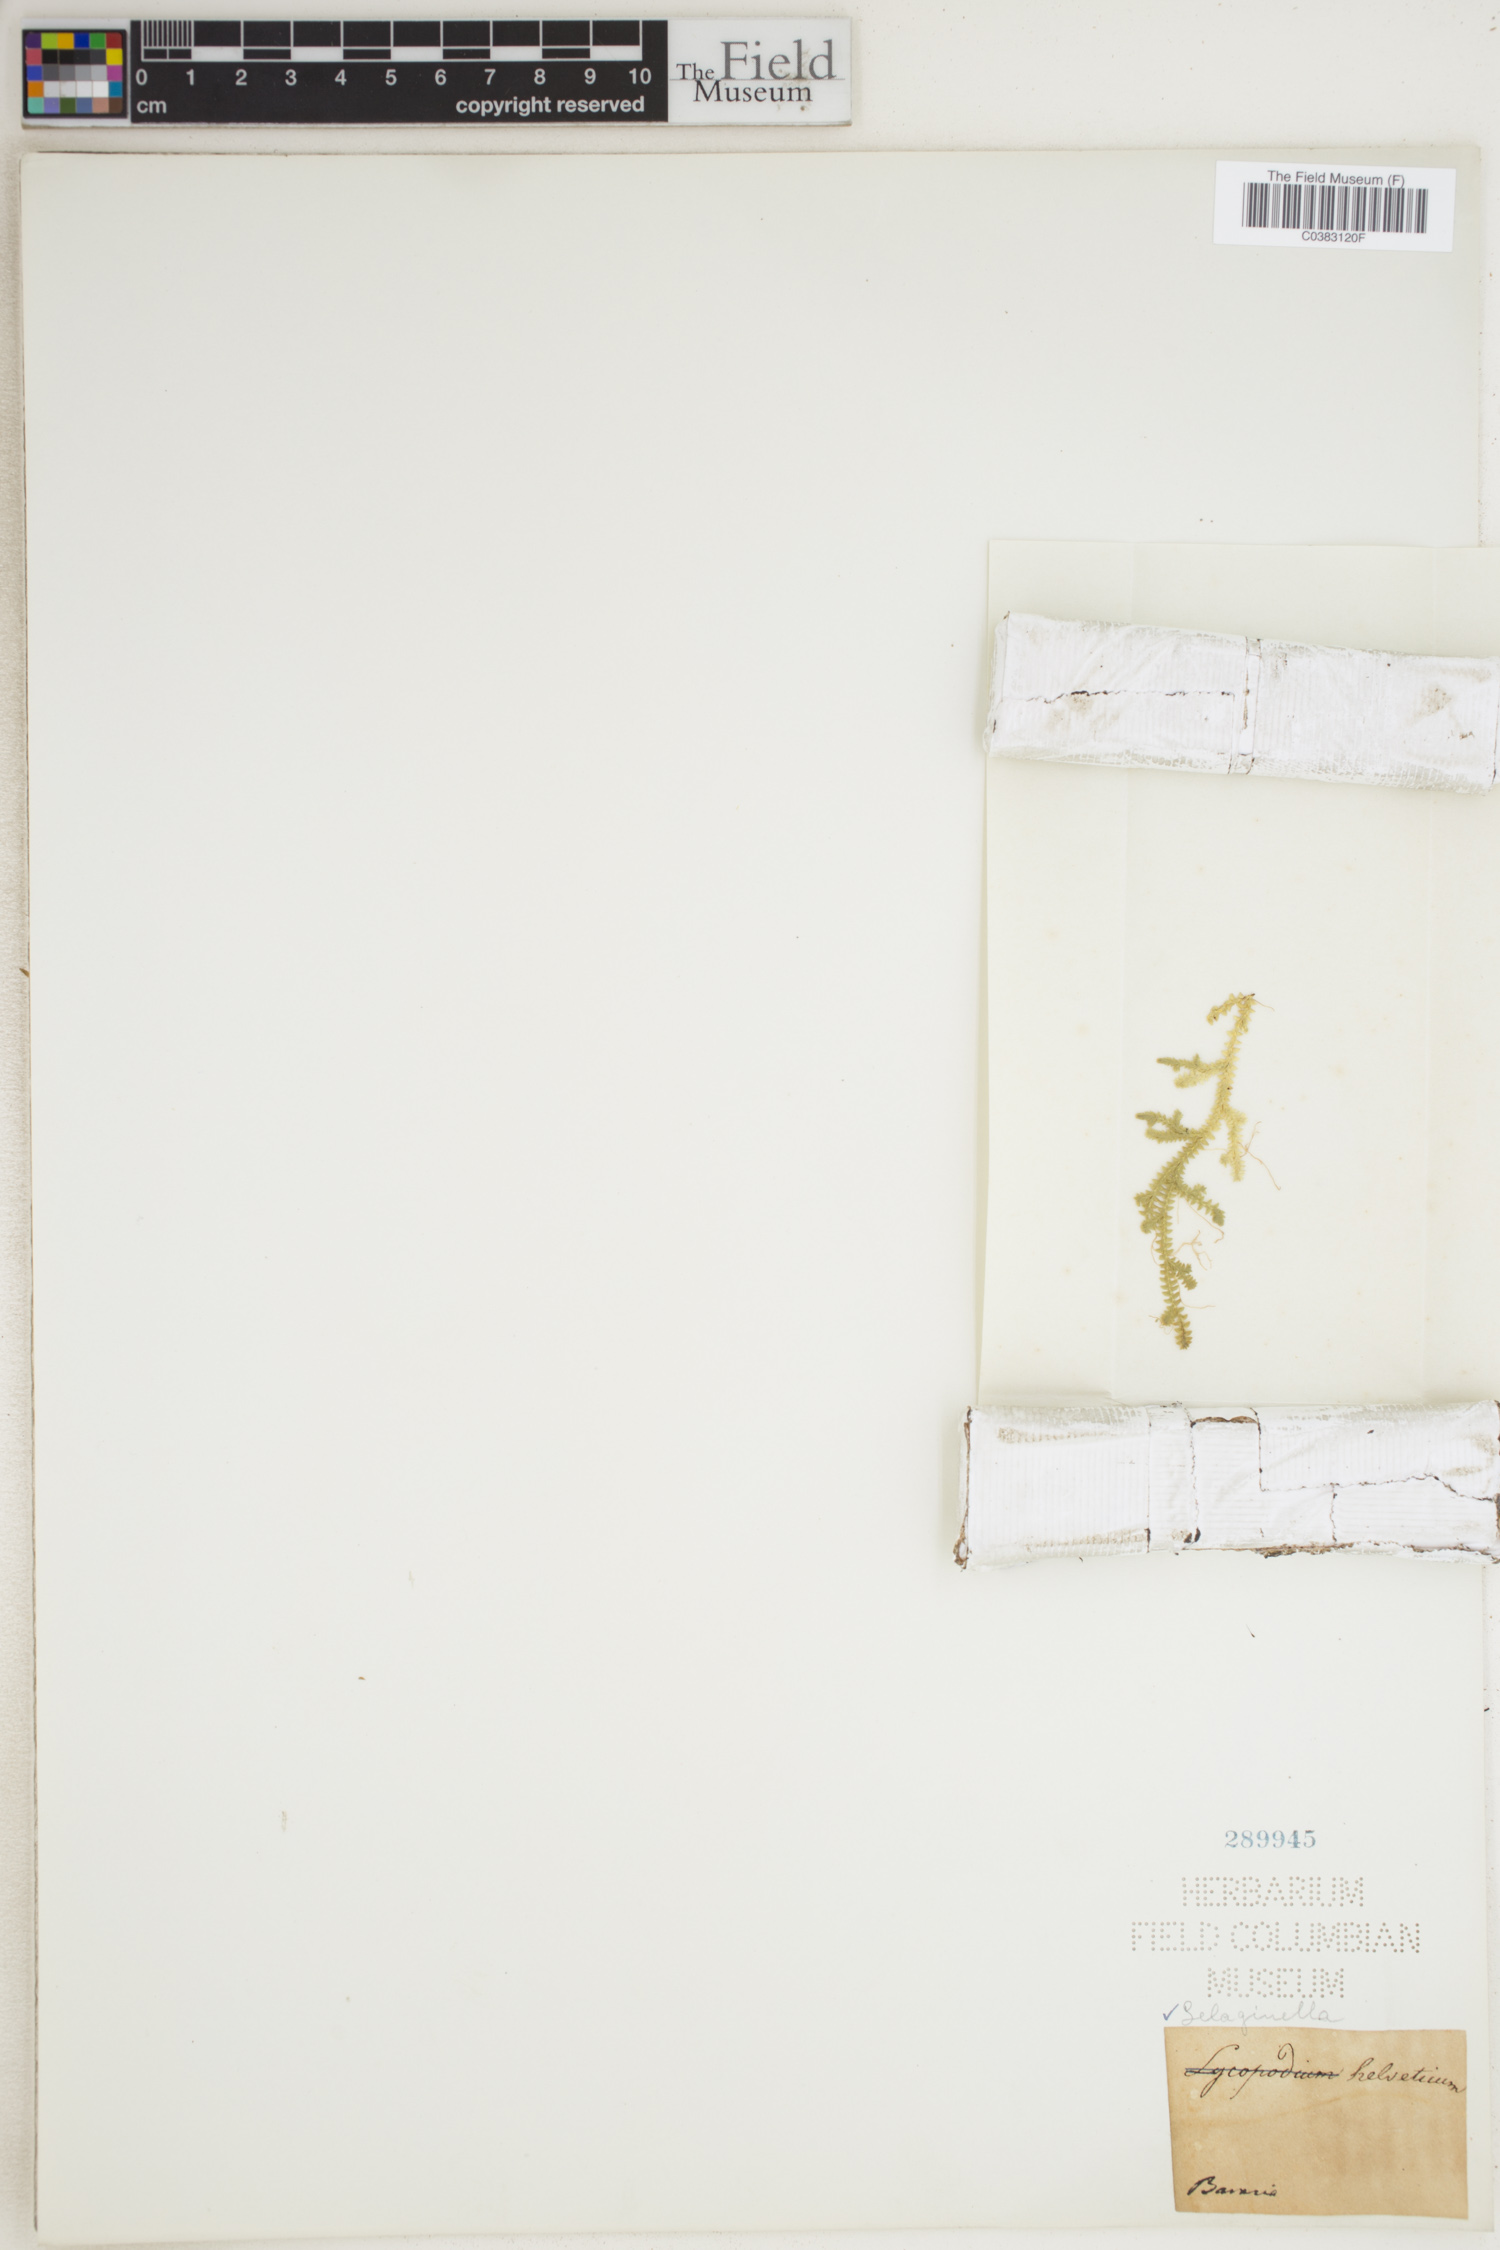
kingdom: Plantae
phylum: Tracheophyta
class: Lycopodiopsida
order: Selaginellales
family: Selaginellaceae
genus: Selaginella
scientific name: Selaginella helvetica
